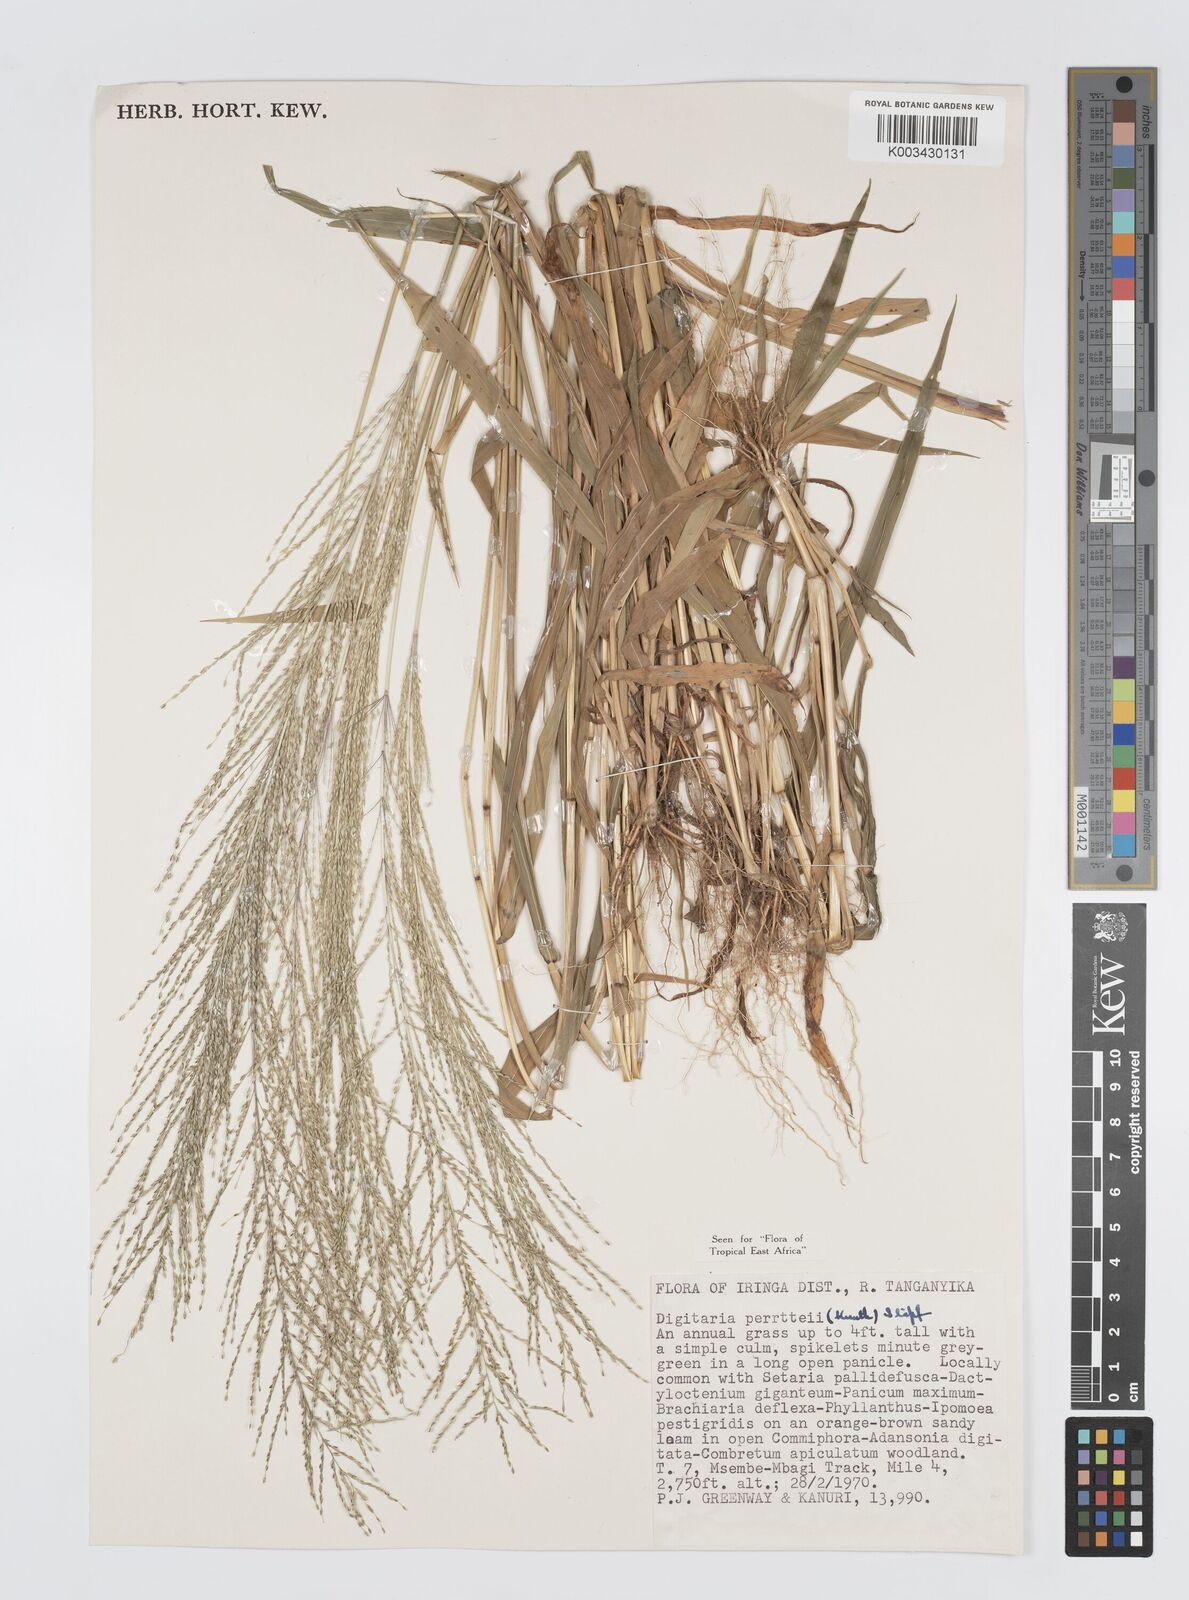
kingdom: Plantae
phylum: Tracheophyta
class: Liliopsida
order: Poales
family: Poaceae
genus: Digitaria
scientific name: Digitaria perrottetii
